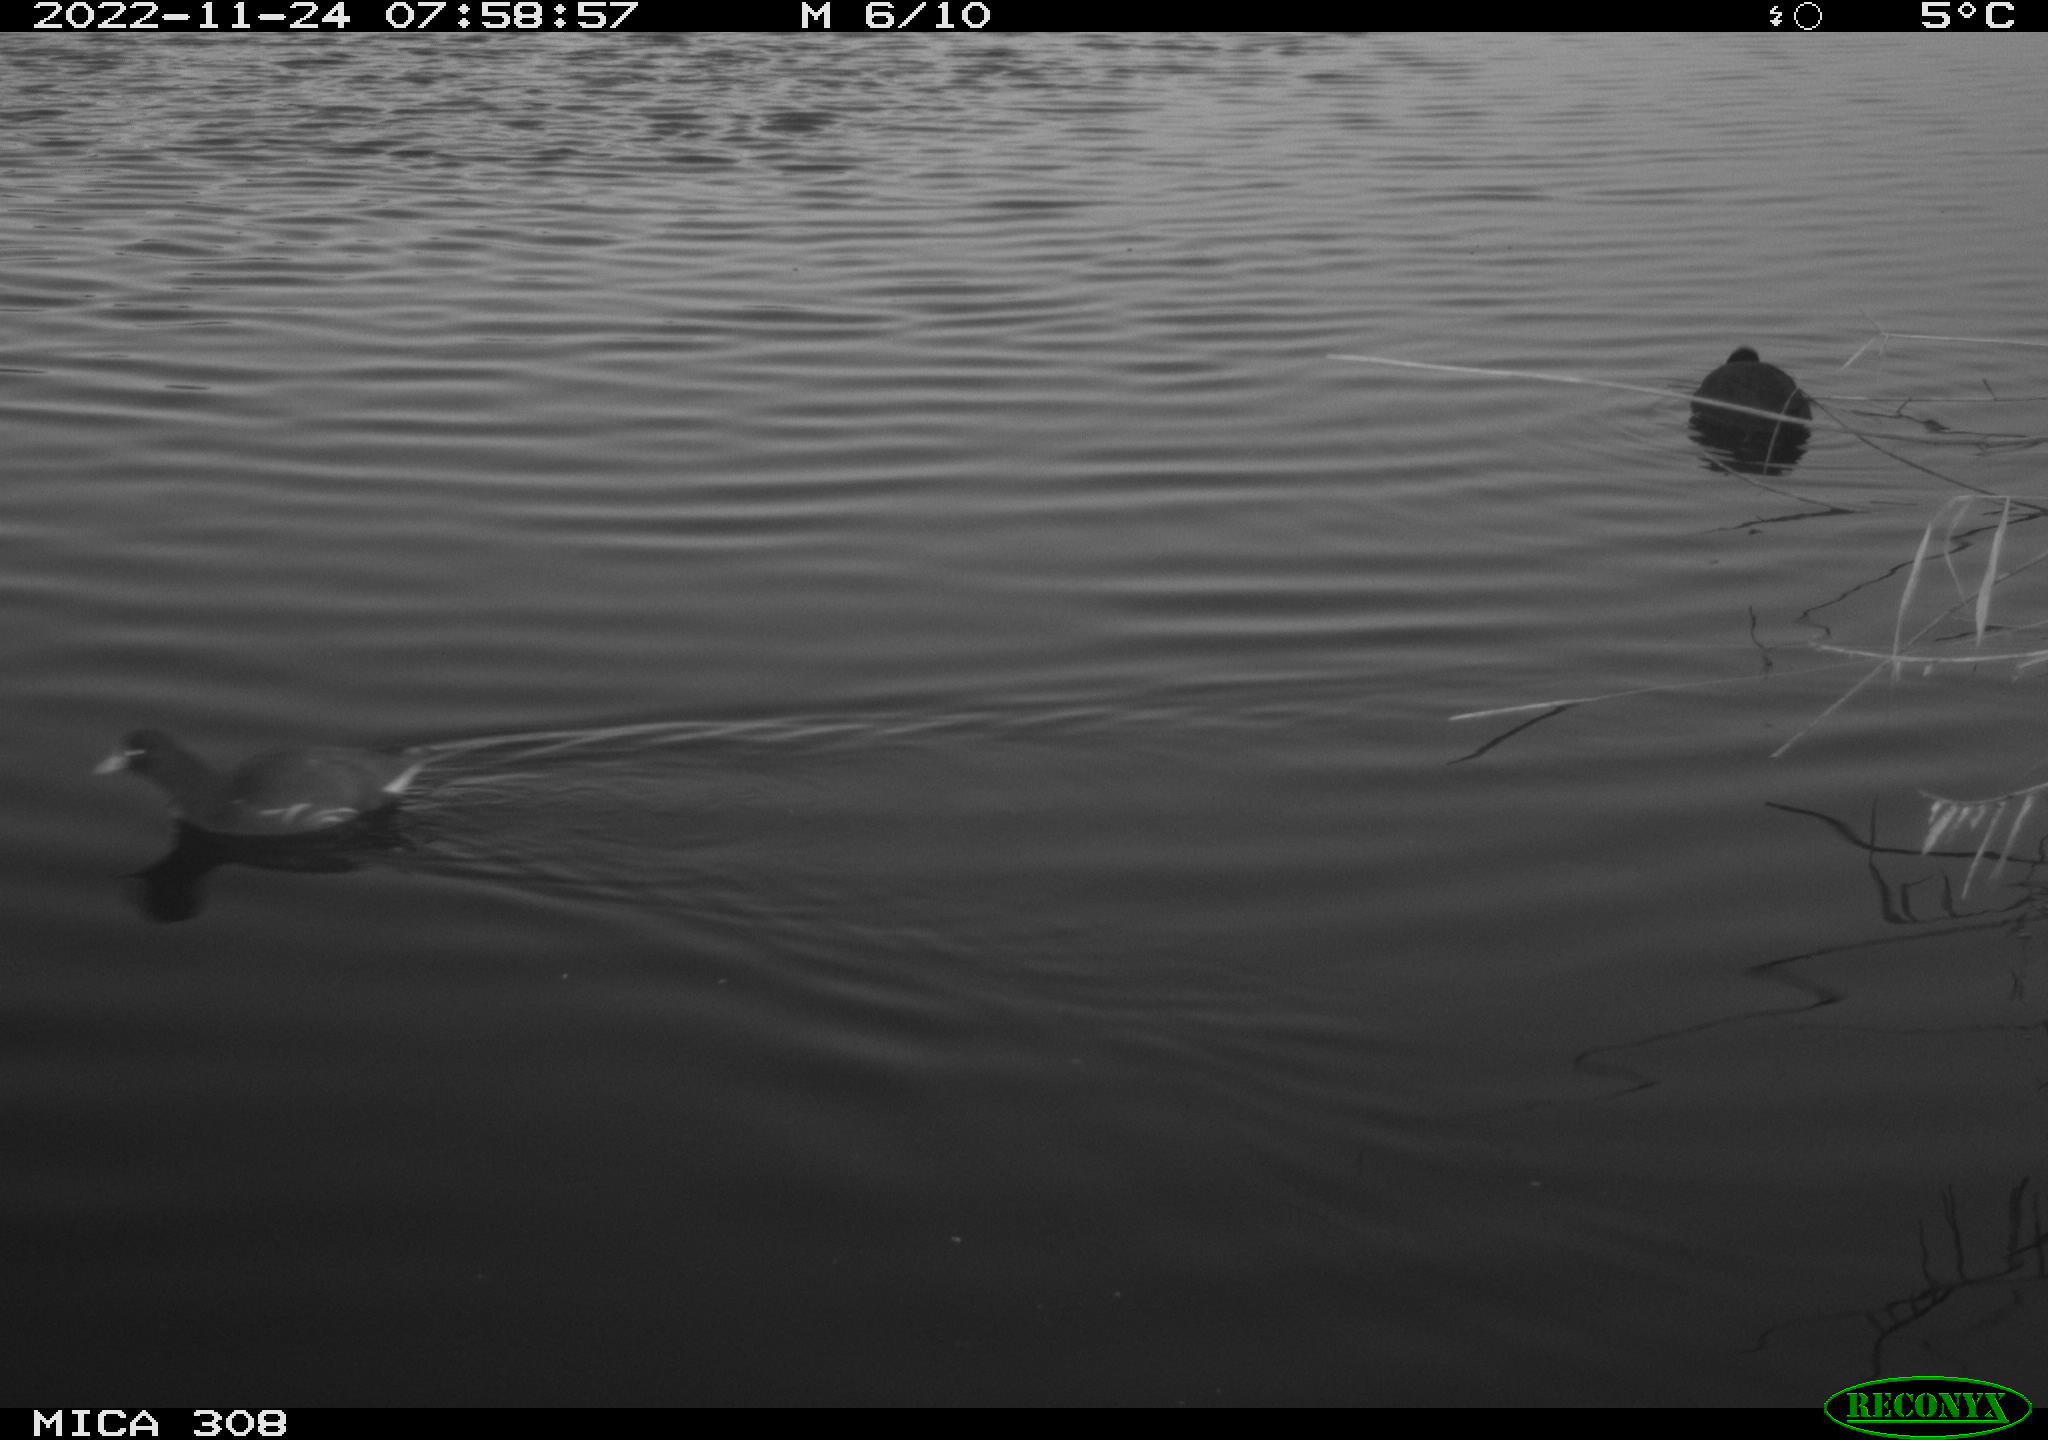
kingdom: Animalia
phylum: Chordata
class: Aves
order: Anseriformes
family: Anatidae
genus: Anas
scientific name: Anas
